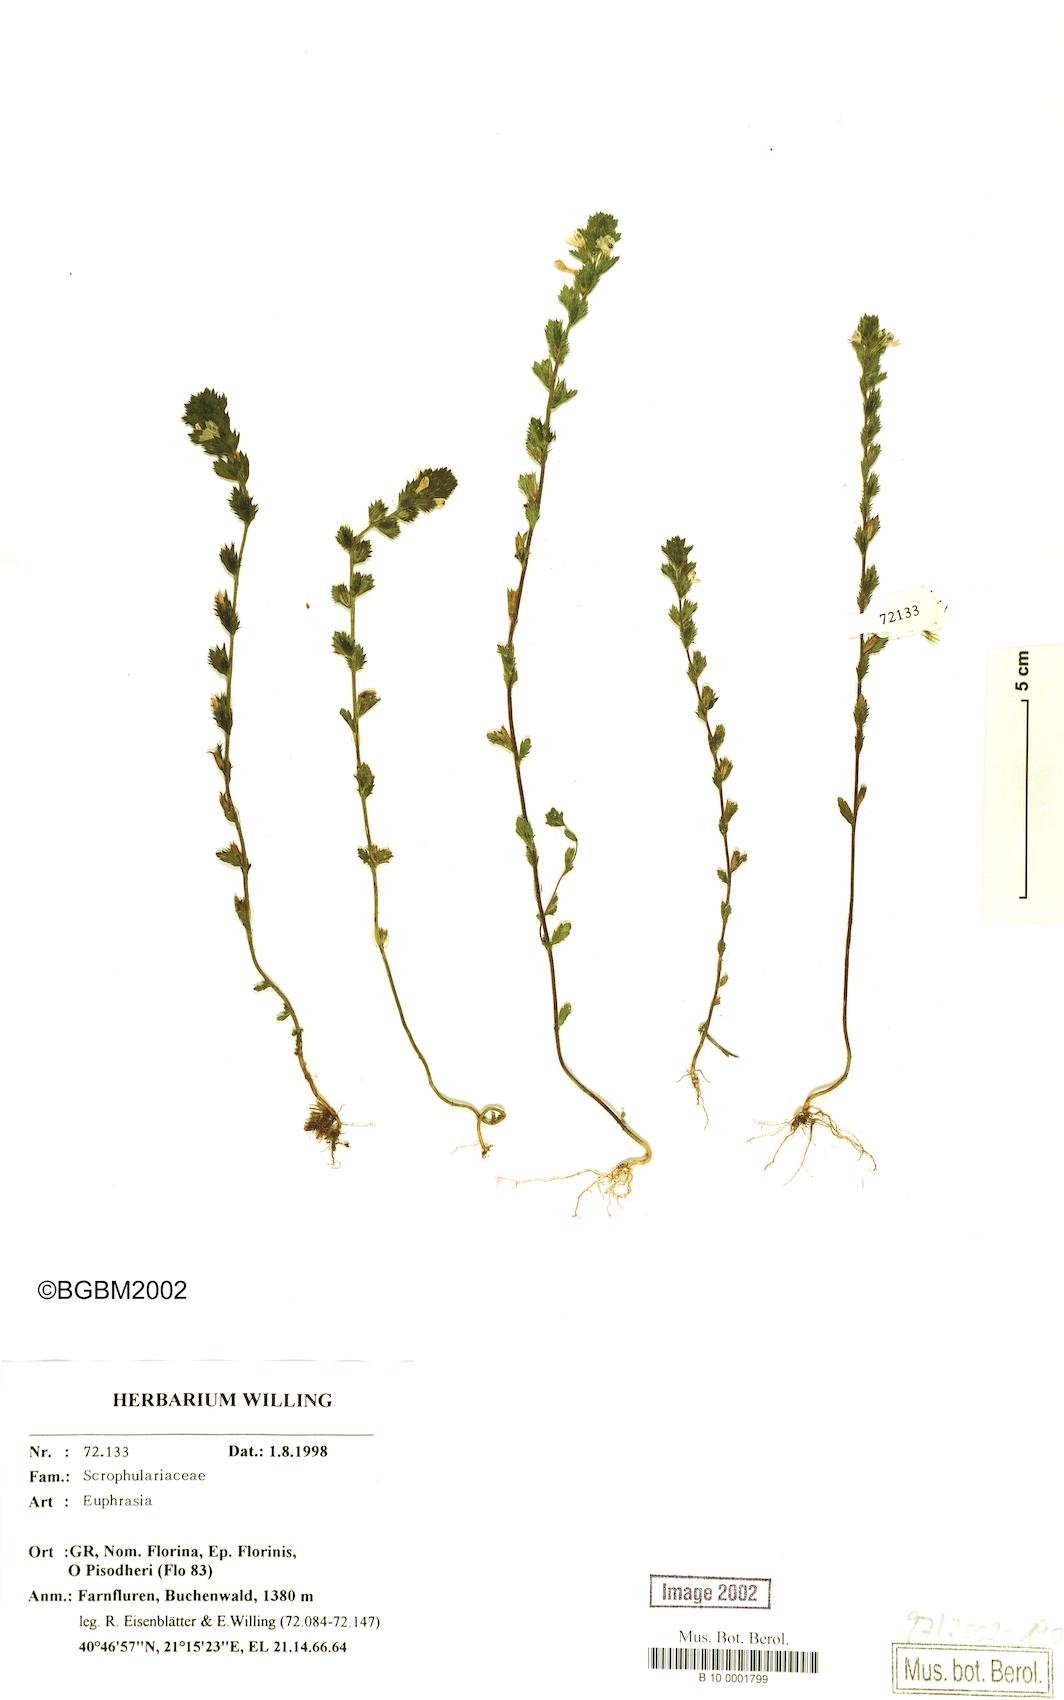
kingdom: Plantae
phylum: Tracheophyta
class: Magnoliopsida
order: Lamiales
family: Orobanchaceae
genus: Euphrasia
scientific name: Euphrasia
